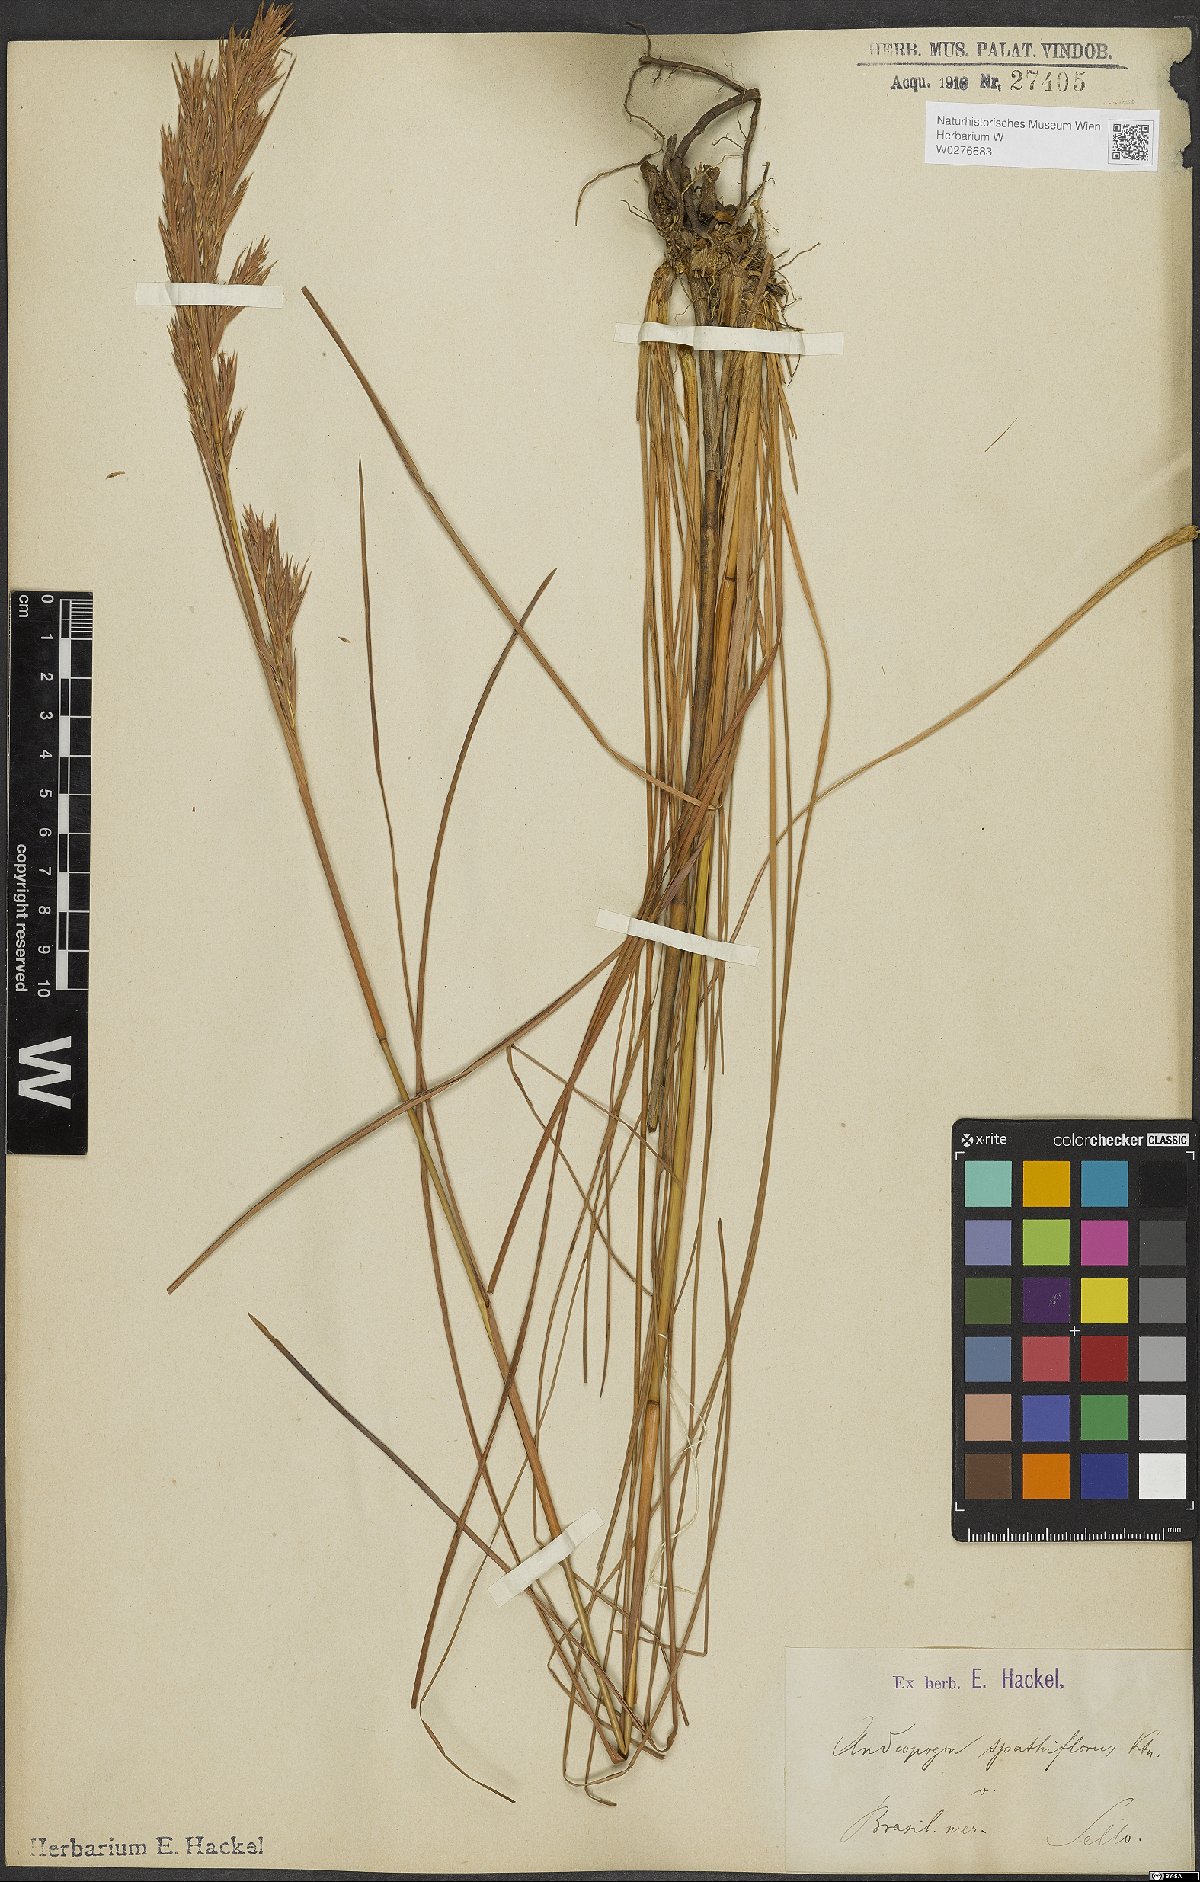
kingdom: Plantae
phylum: Tracheophyta
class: Liliopsida
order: Poales
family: Poaceae
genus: Andropogon
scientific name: Andropogon virgatus
